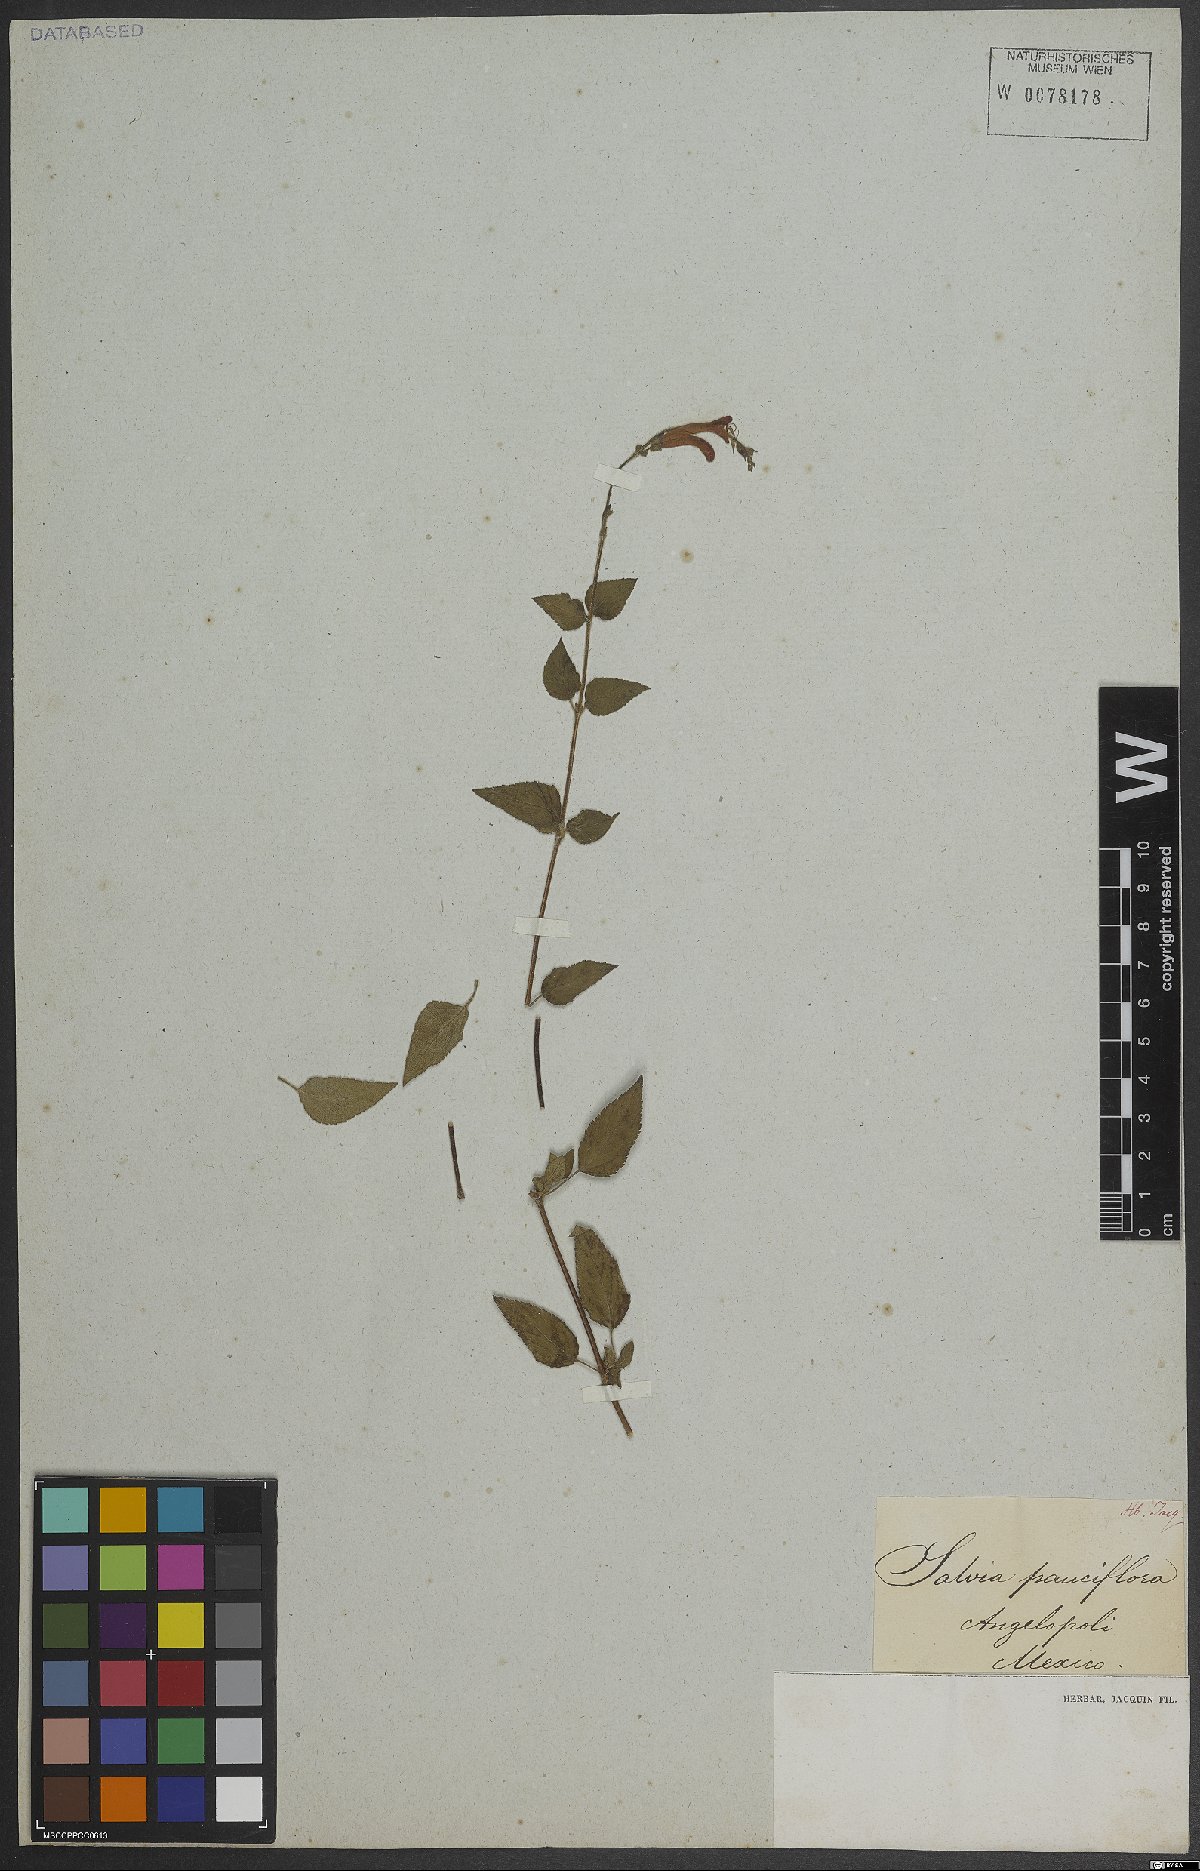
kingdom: Plantae
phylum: Tracheophyta
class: Magnoliopsida
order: Lamiales
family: Lamiaceae
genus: Salvia
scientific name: Salvia
